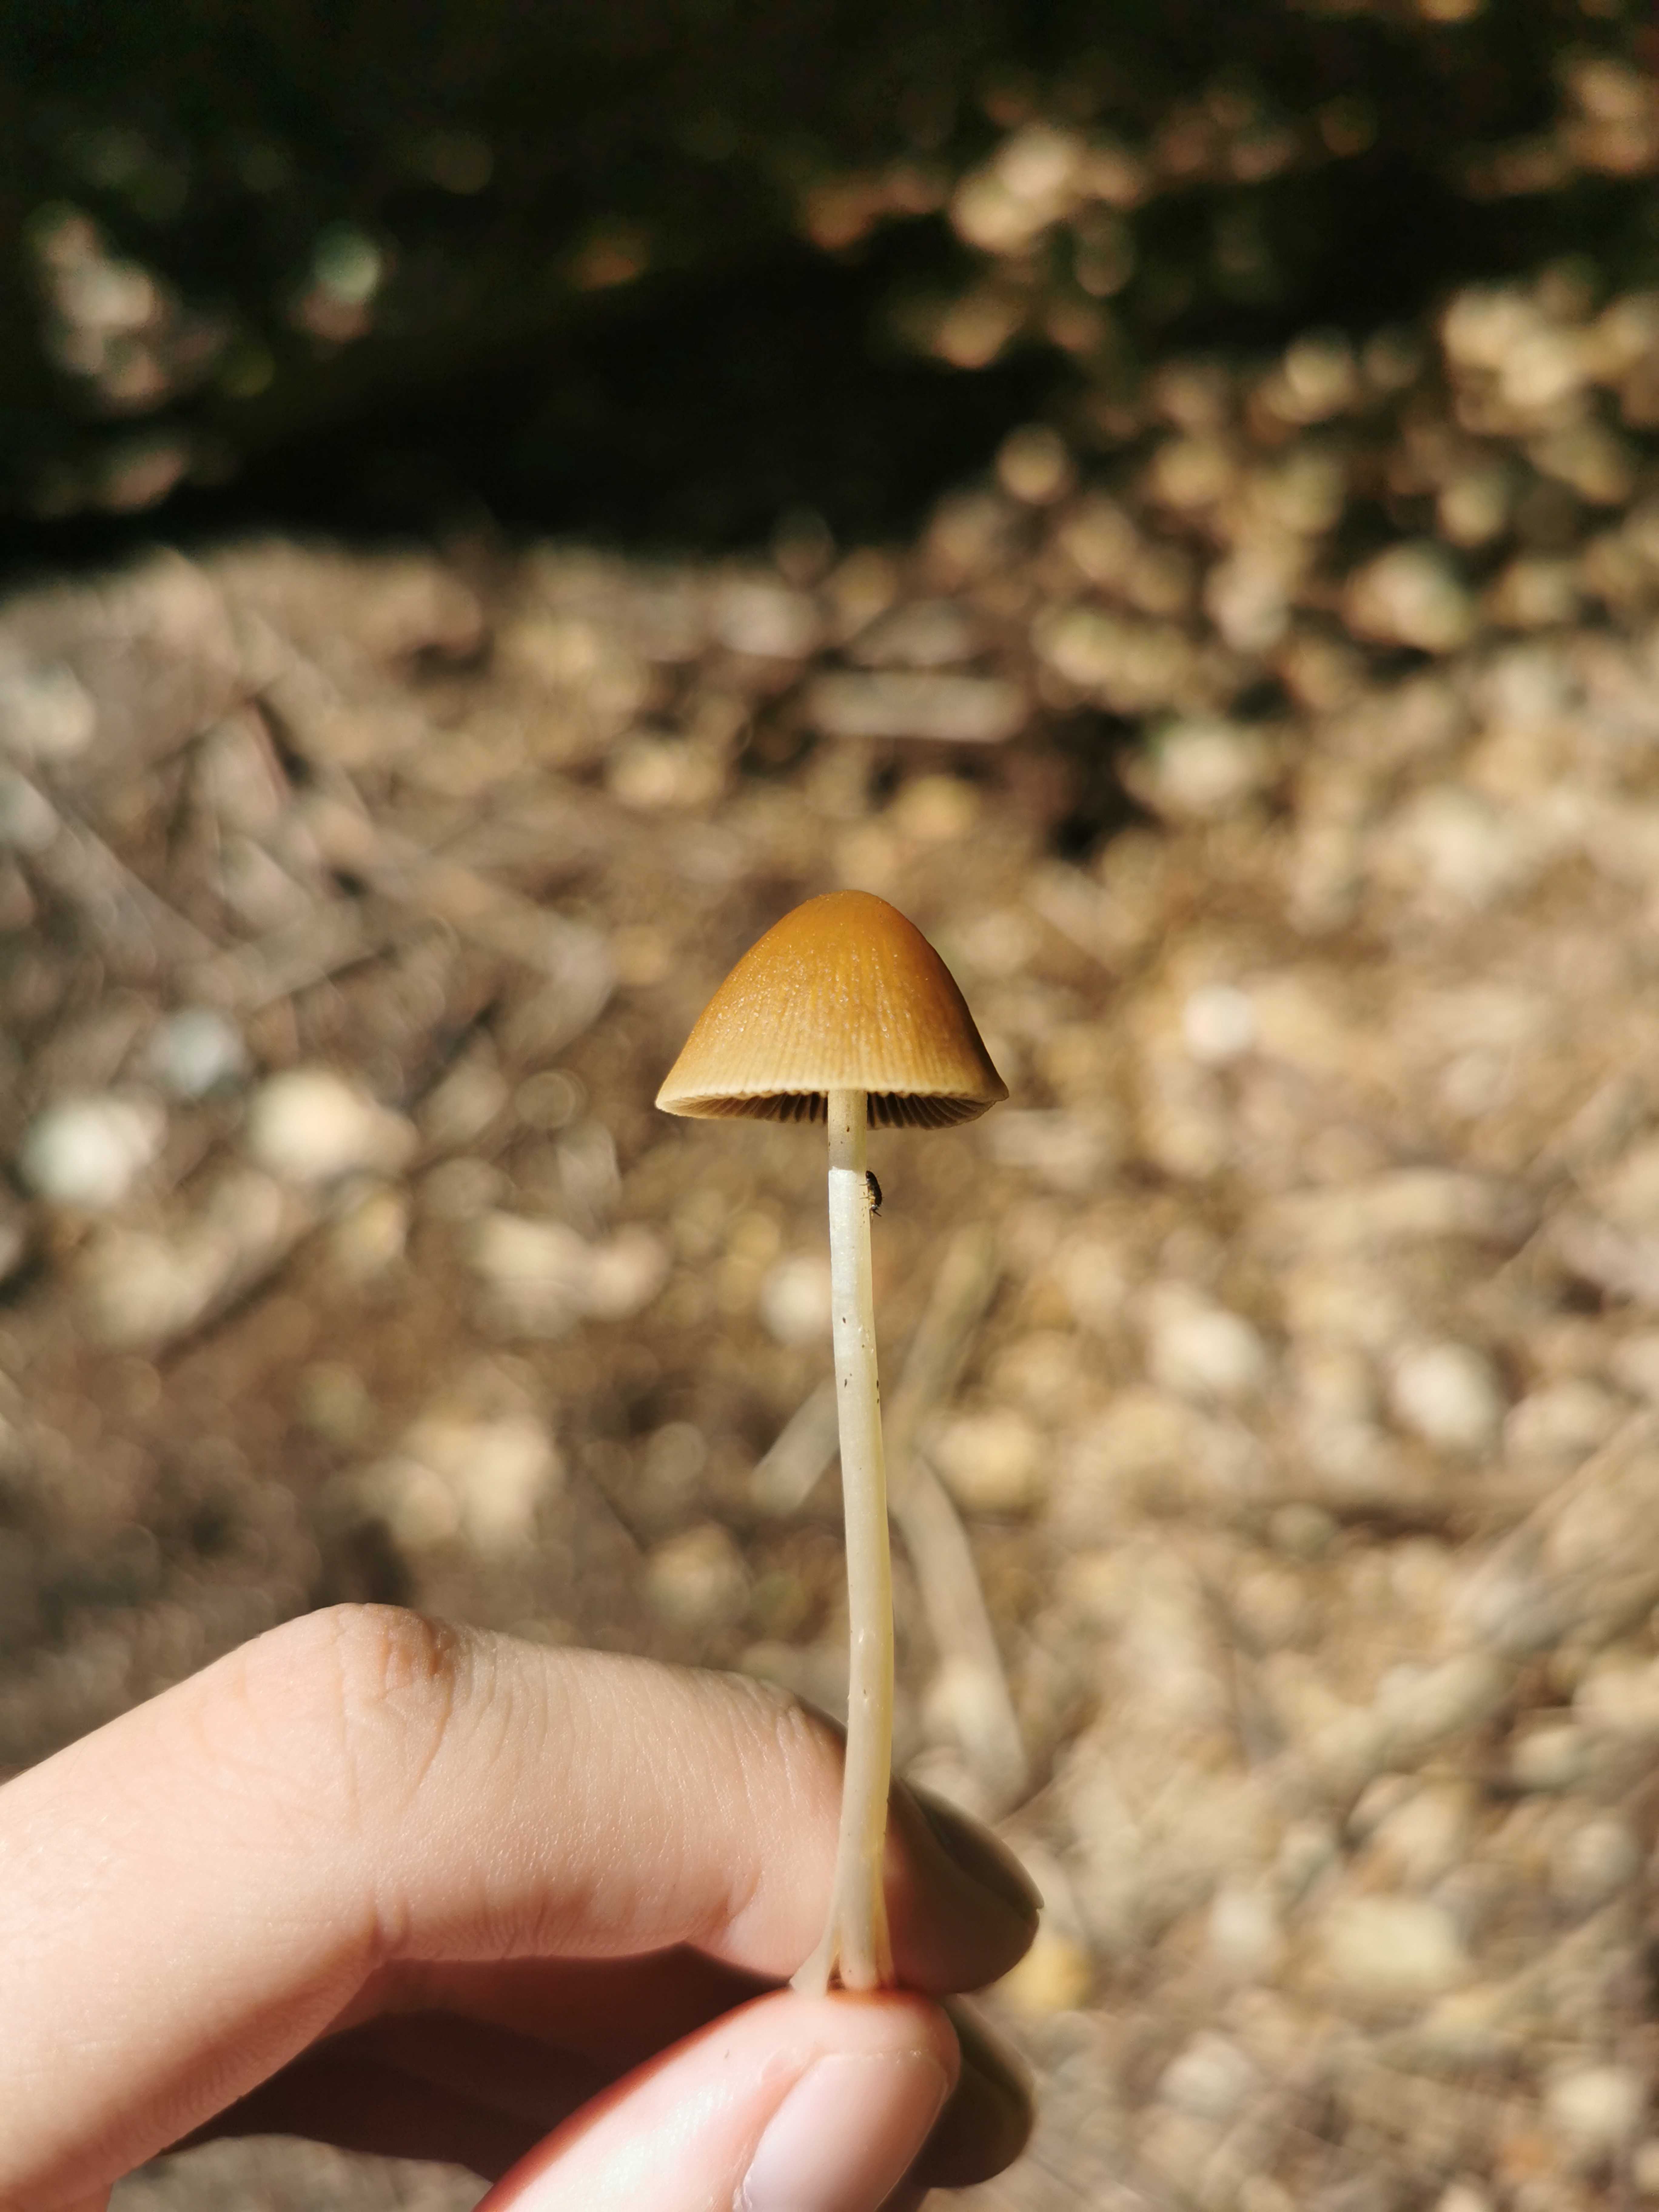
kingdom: Fungi
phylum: Basidiomycota
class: Agaricomycetes
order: Agaricales
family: Psathyrellaceae
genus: Psathyrella
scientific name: Psathyrella
